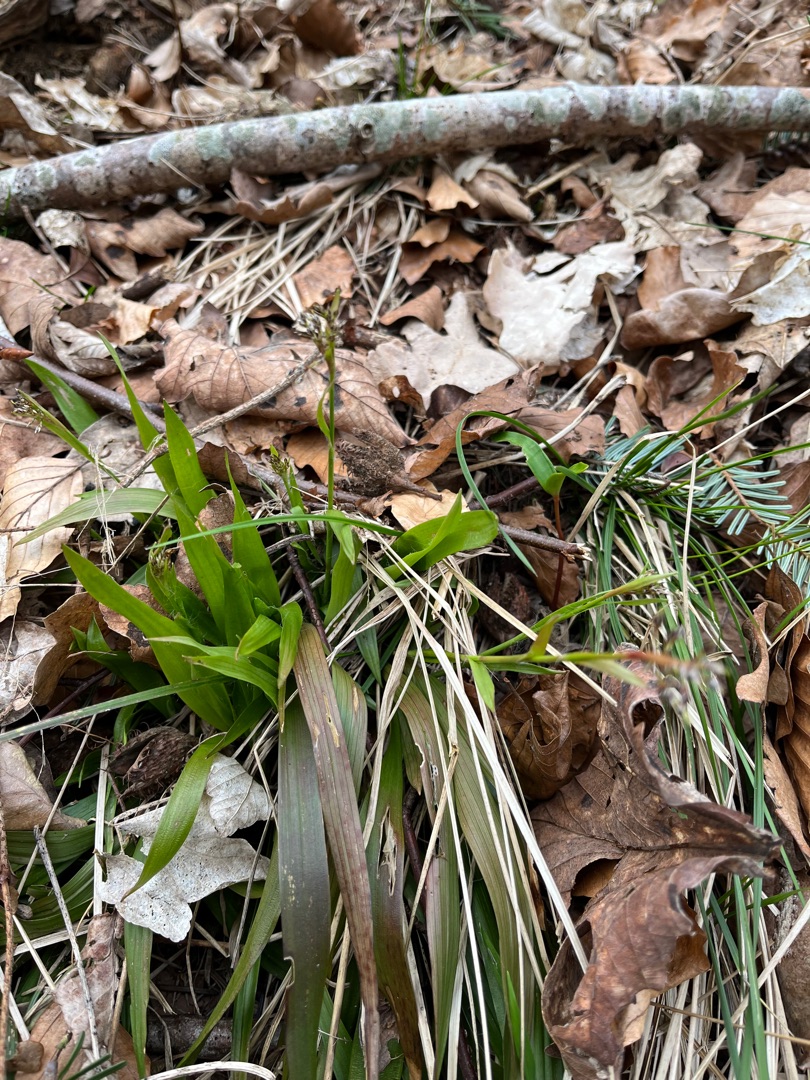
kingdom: Plantae
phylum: Tracheophyta
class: Liliopsida
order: Poales
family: Juncaceae
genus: Luzula
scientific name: Luzula pilosa
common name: Håret frytle
